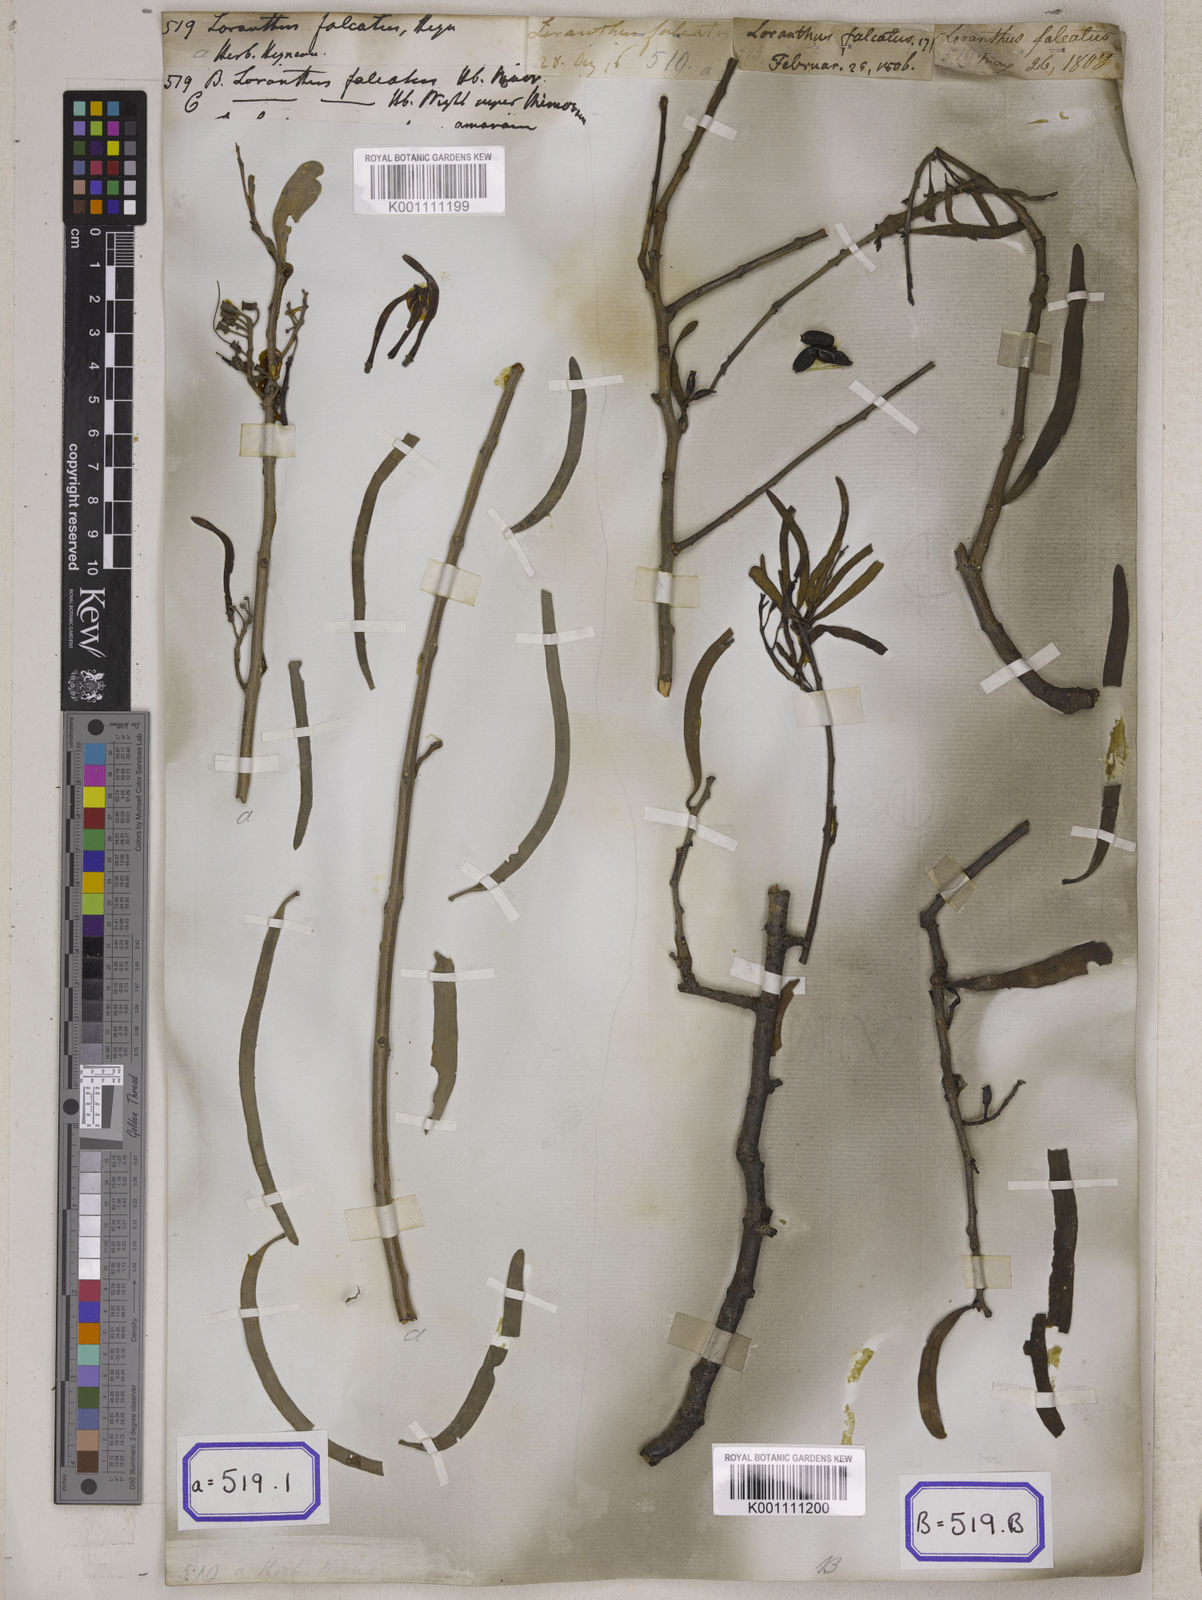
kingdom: Plantae
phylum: Tracheophyta
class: Magnoliopsida
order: Santalales
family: Loranthaceae
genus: Loranthus
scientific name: Loranthus
